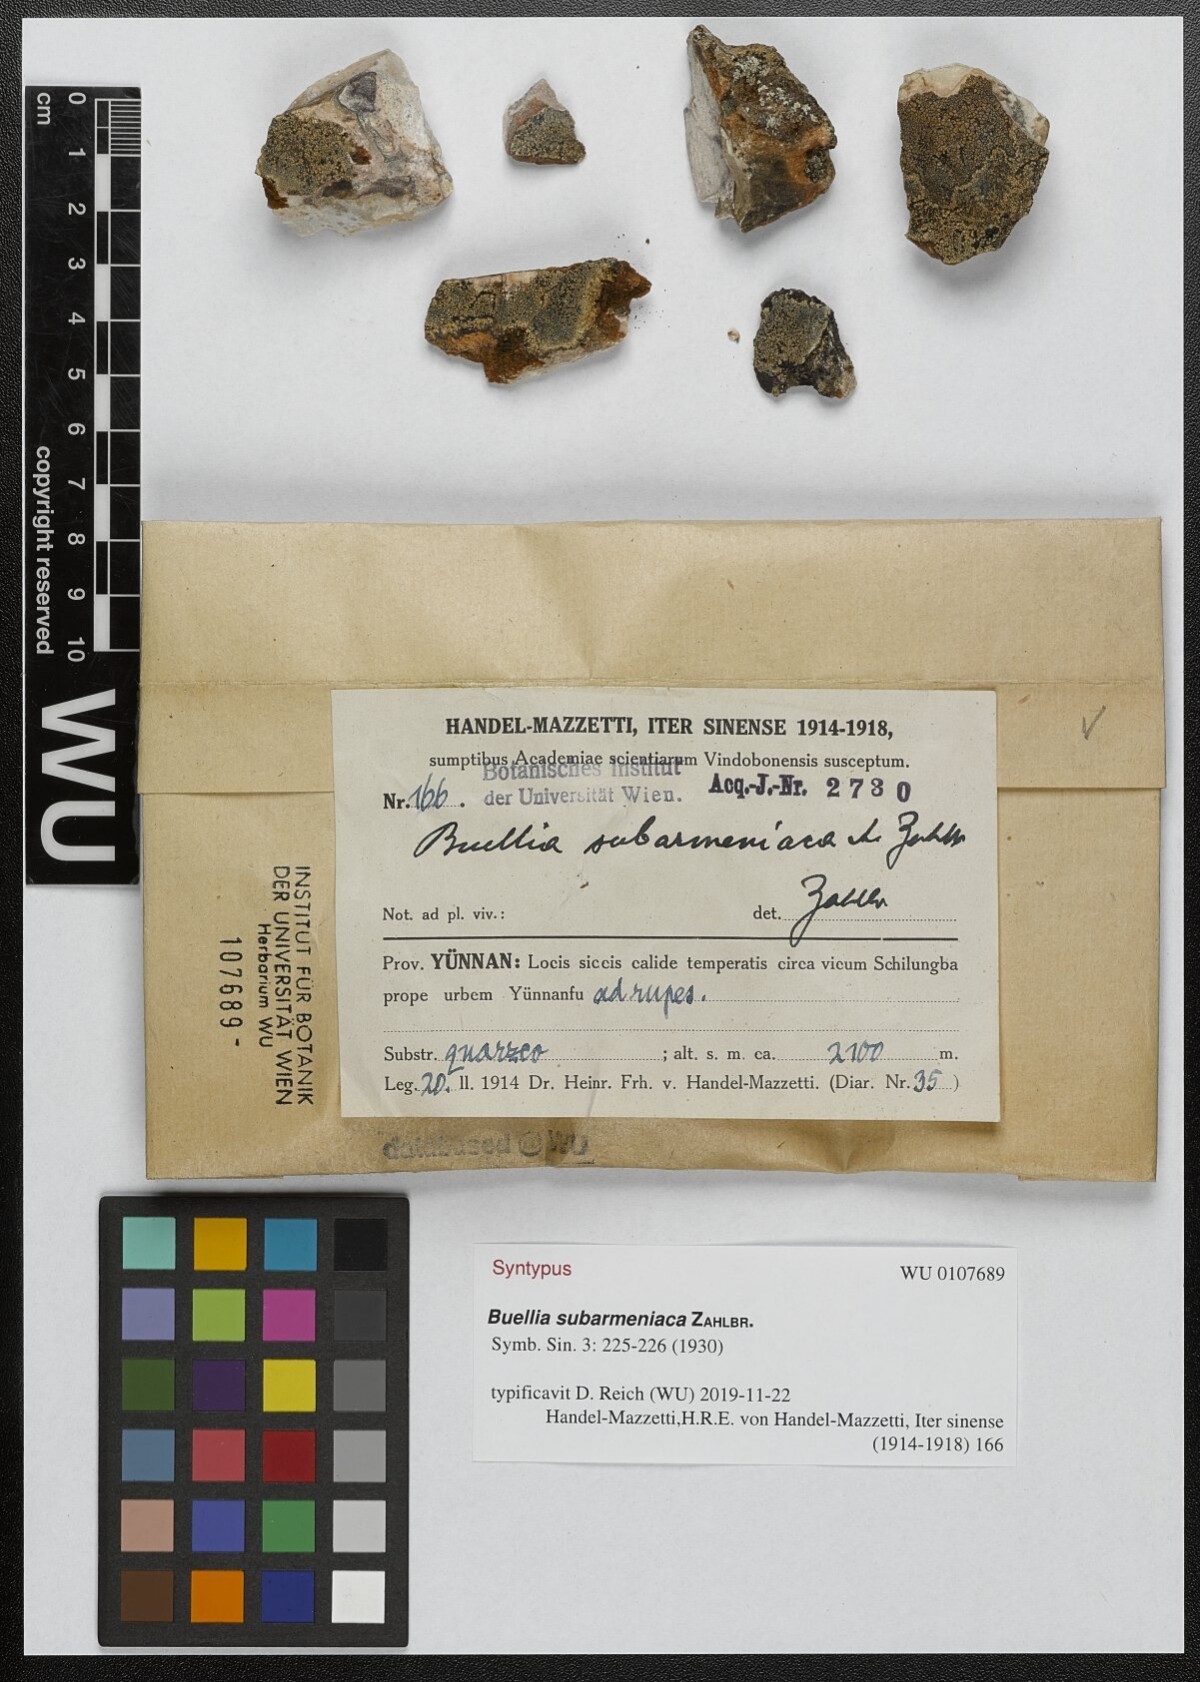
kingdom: Fungi
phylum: Ascomycota
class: Lecanoromycetes
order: Caliciales
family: Physciaceae
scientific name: Physciaceae
